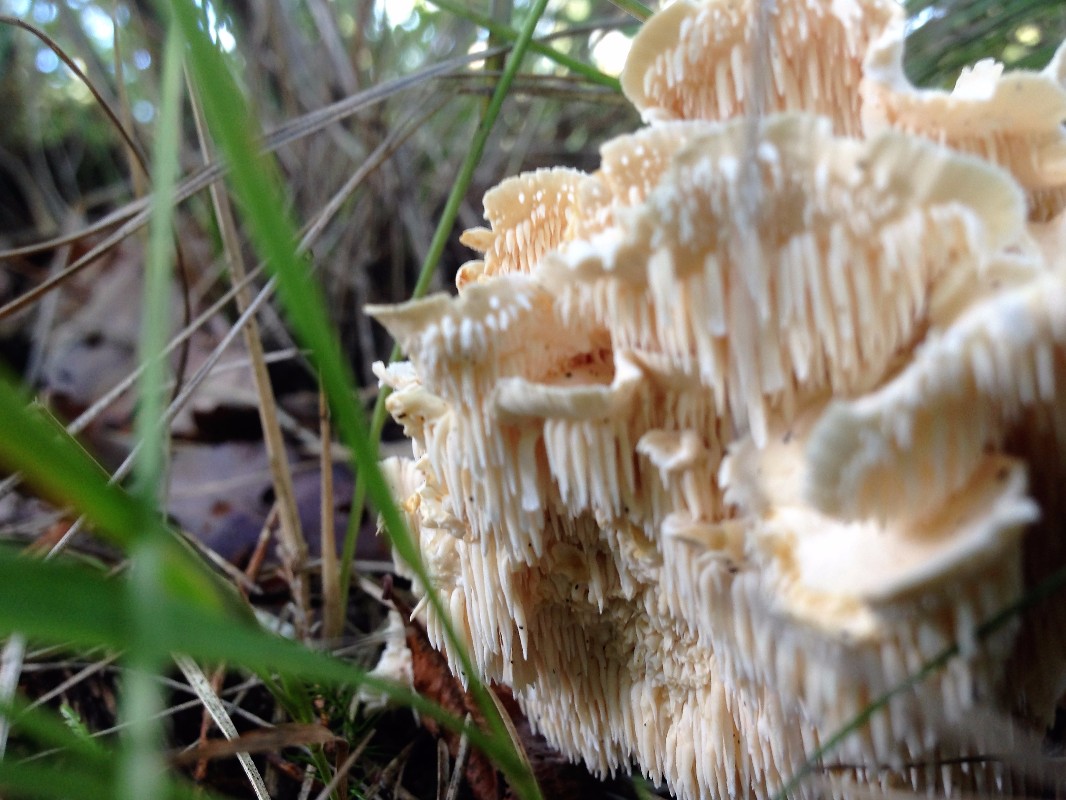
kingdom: Fungi
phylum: Basidiomycota
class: Agaricomycetes
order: Cantharellales
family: Hydnaceae
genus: Hydnum
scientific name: Hydnum repandum
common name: almindelig pigsvamp
